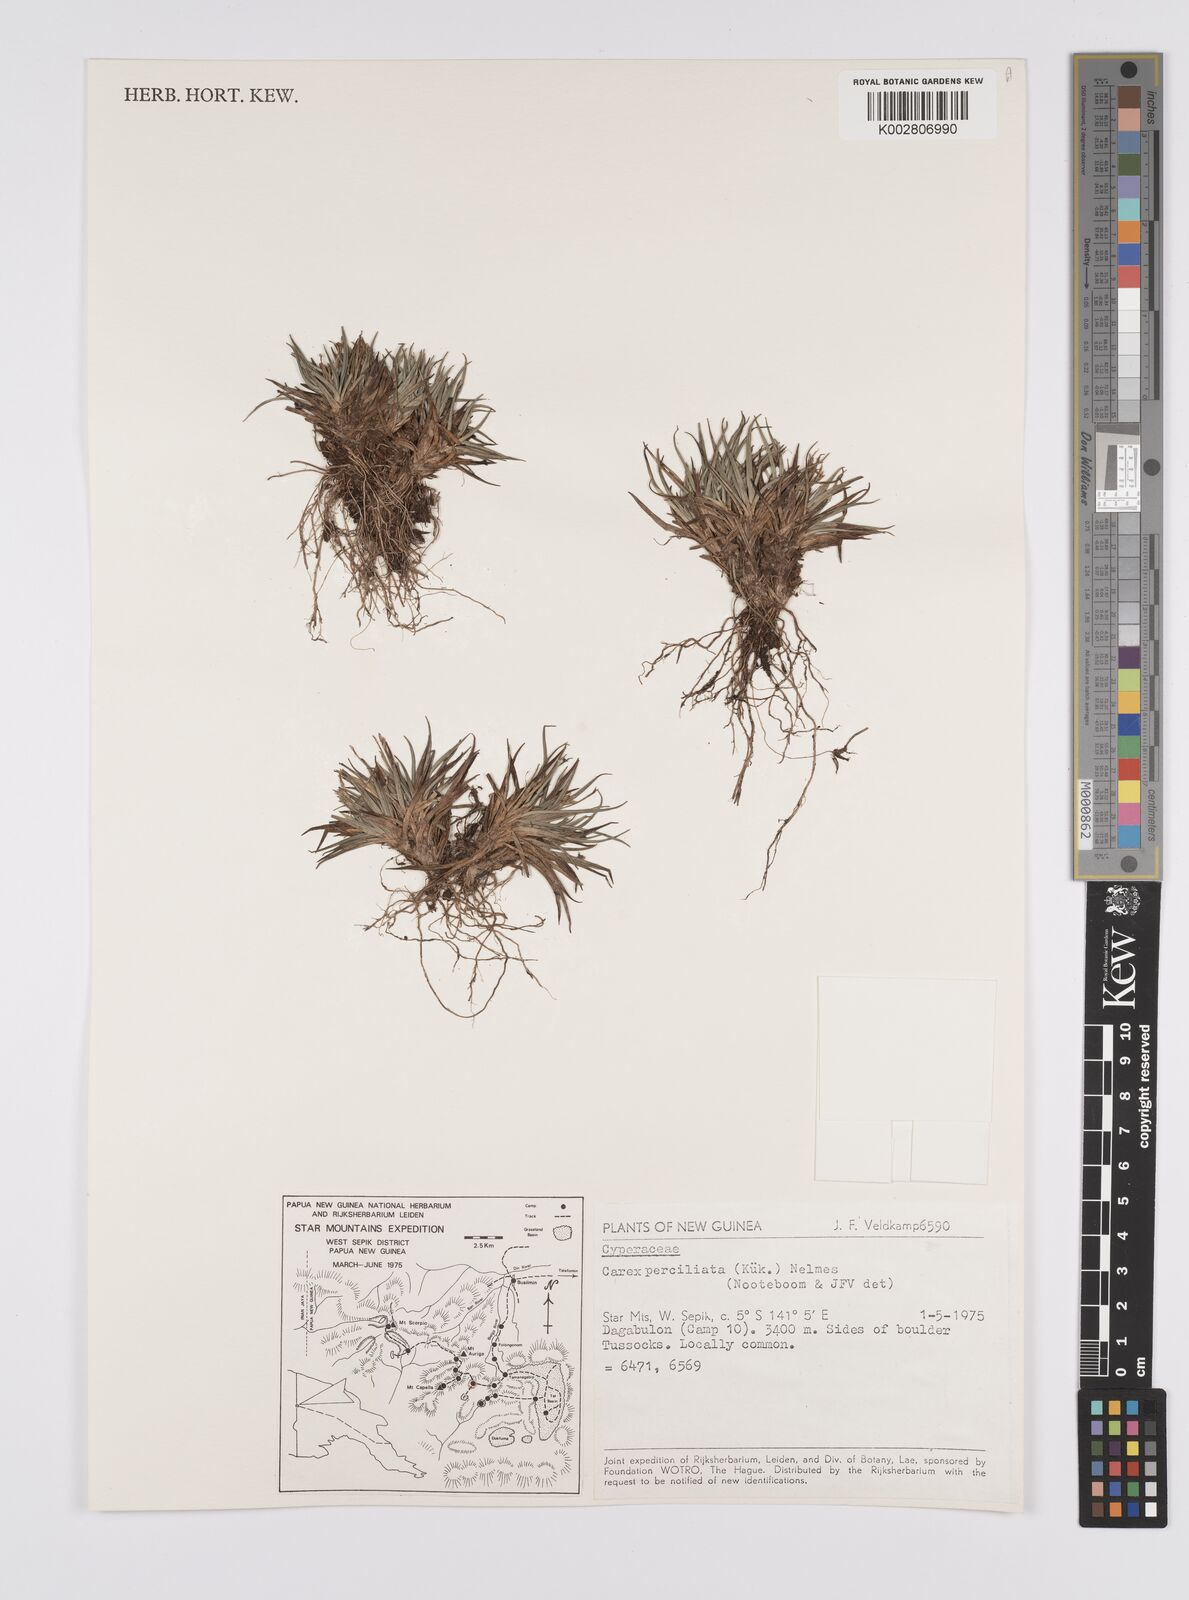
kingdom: Plantae
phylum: Tracheophyta
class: Liliopsida
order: Poales
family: Cyperaceae
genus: Carex
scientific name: Carex breviculmis
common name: Asian shortstem sedge
